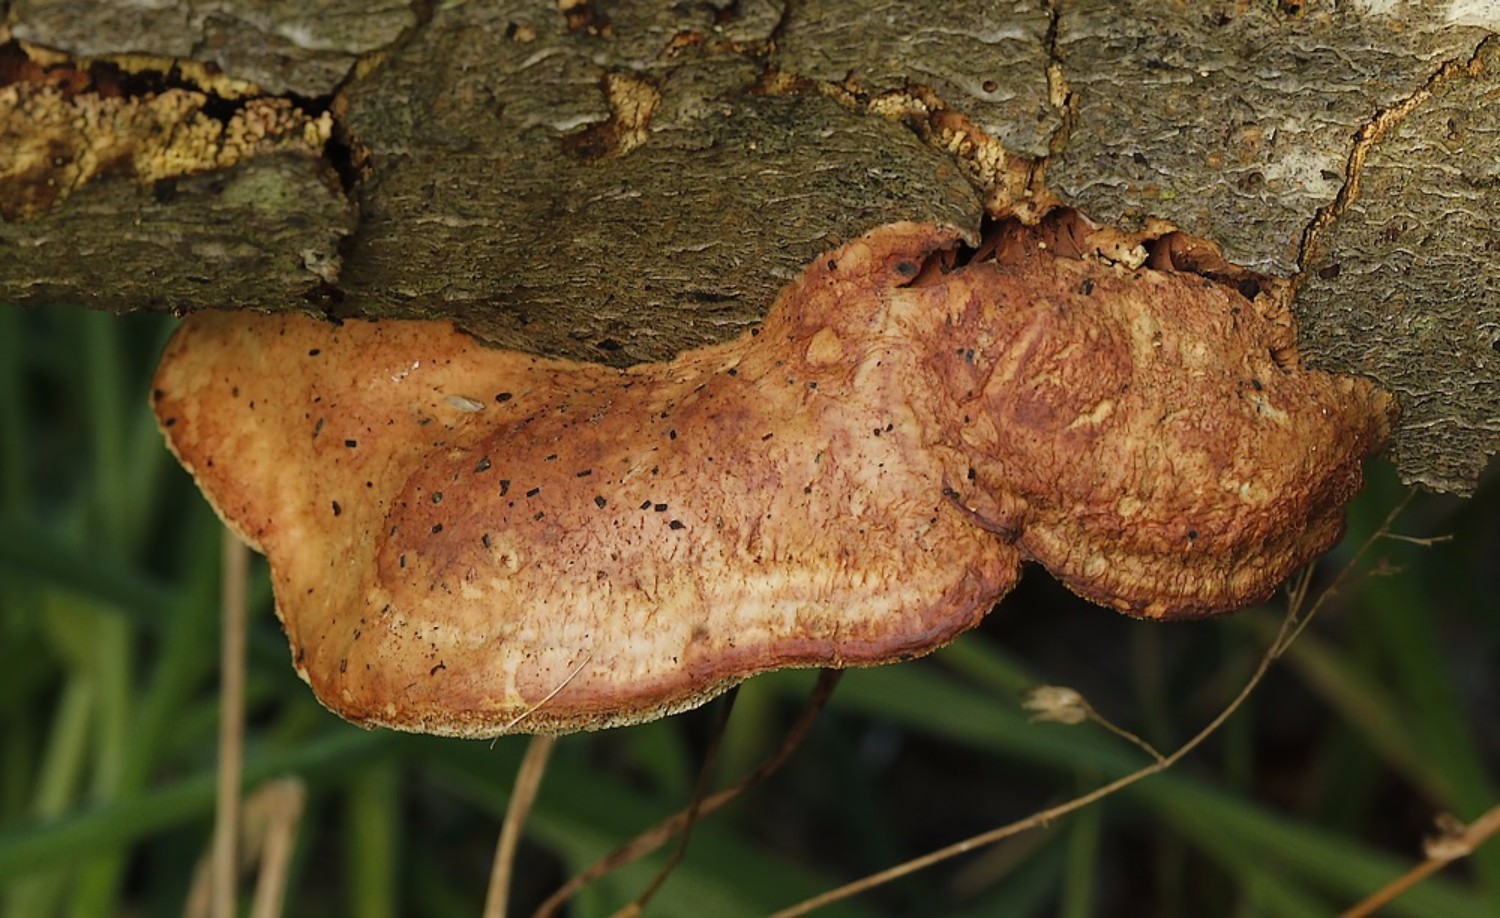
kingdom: Fungi
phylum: Basidiomycota
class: Agaricomycetes
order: Polyporales
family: Phanerochaetaceae
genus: Hapalopilus
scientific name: Hapalopilus rutilans
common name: rødlig okkerporesvamp
